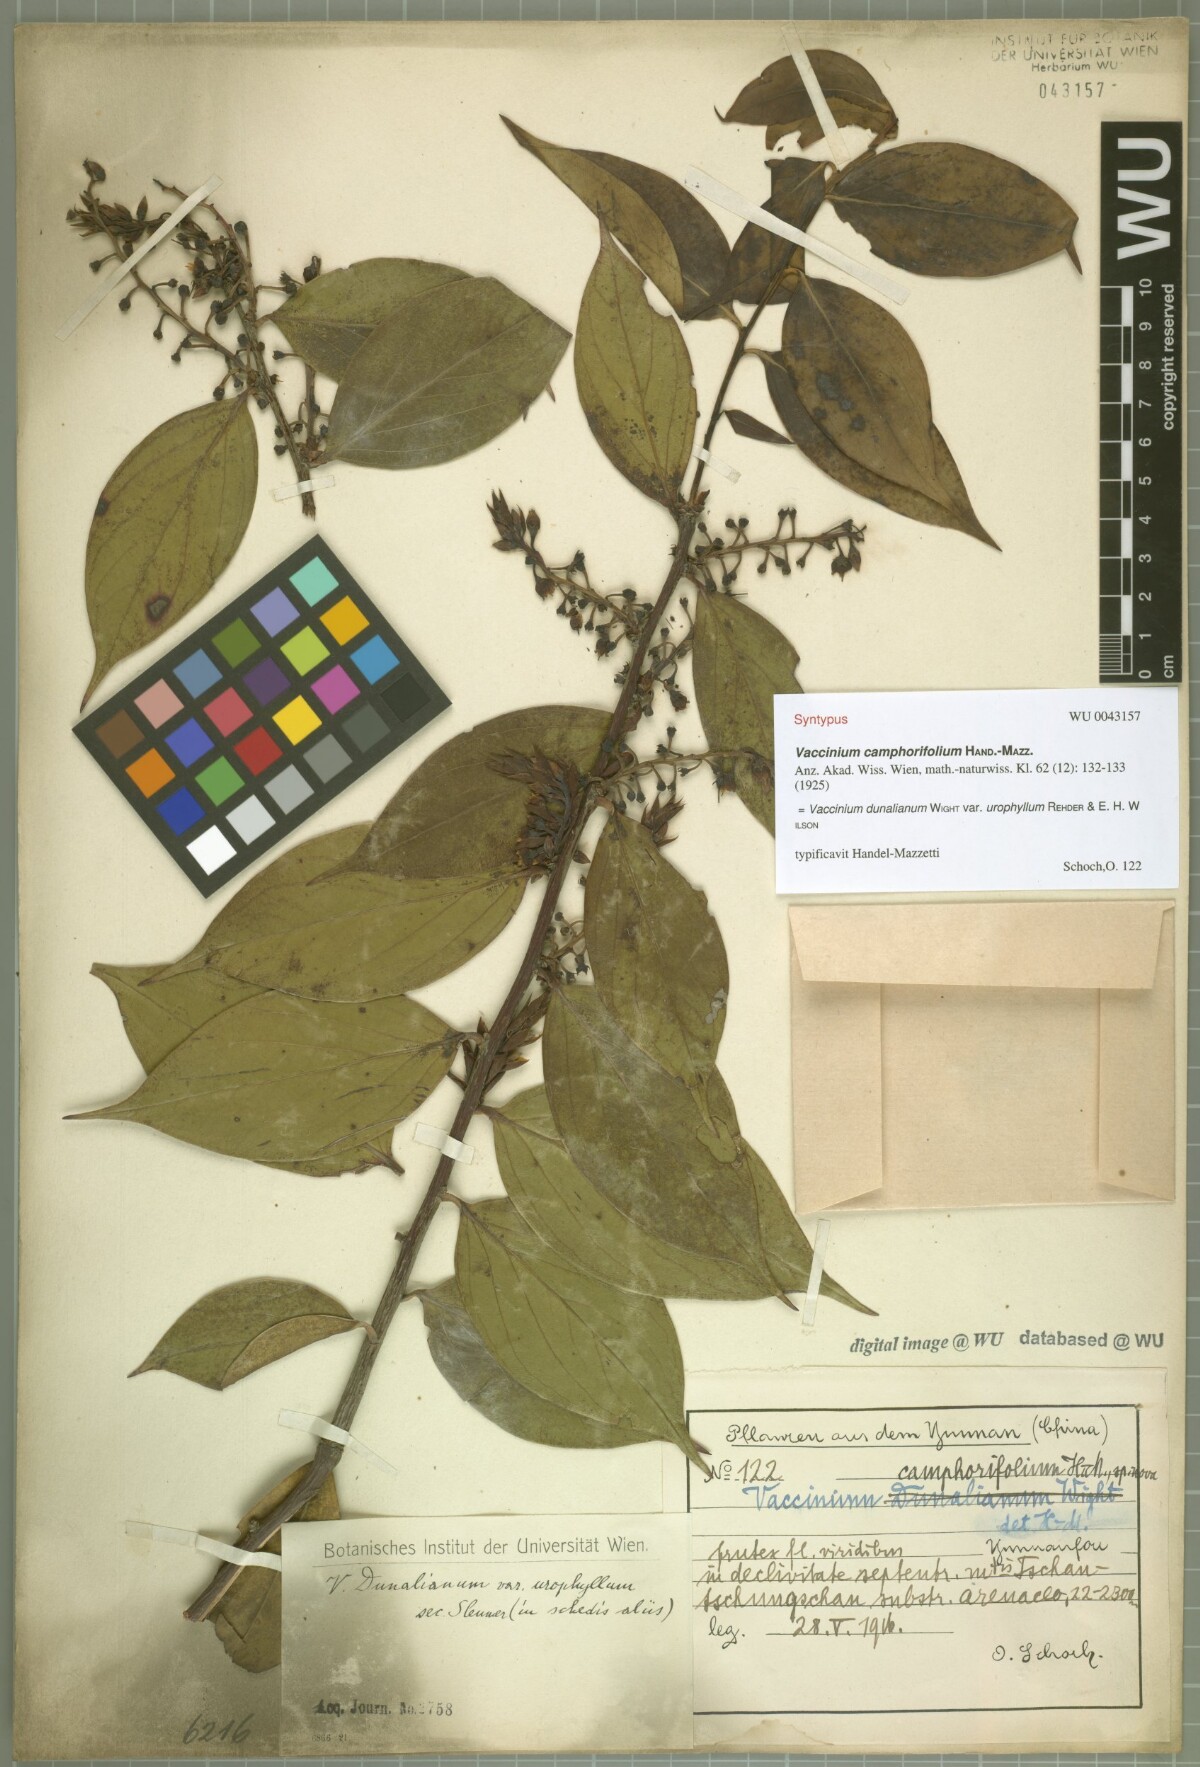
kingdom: Plantae
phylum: Tracheophyta
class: Magnoliopsida
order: Ericales
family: Ericaceae
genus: Vaccinium
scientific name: Vaccinium dunalianum
